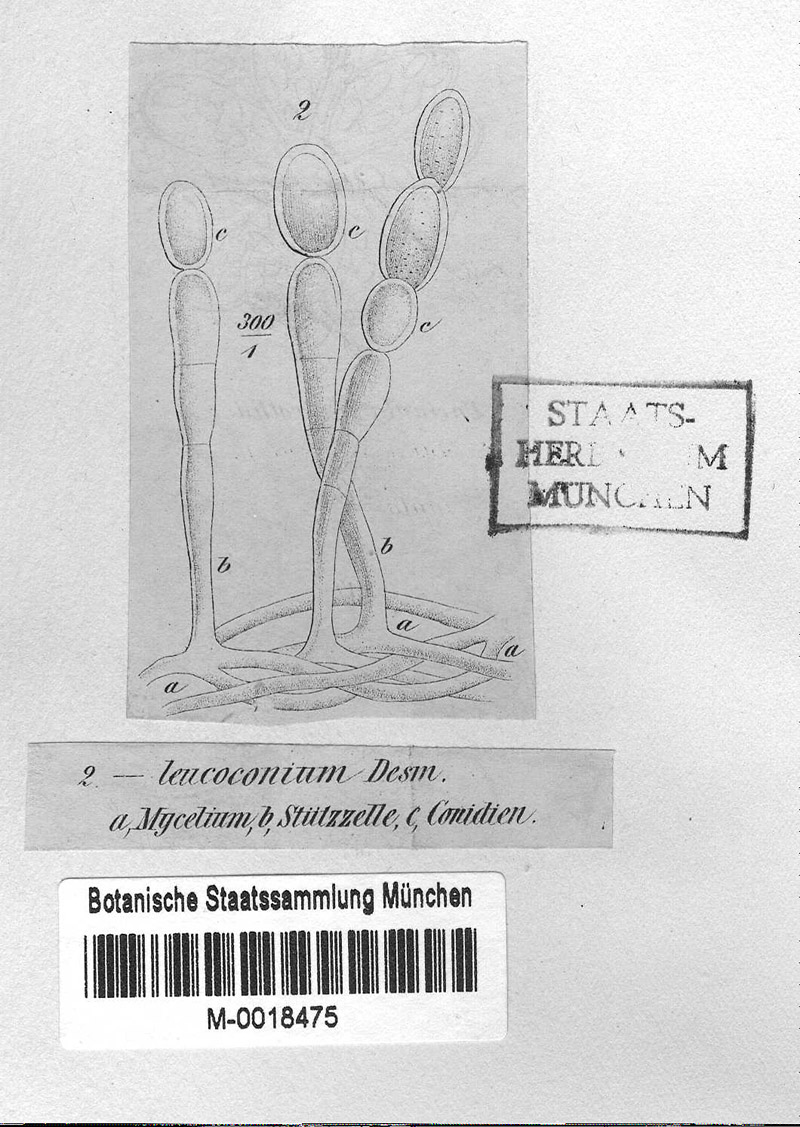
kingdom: Fungi
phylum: Ascomycota
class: Leotiomycetes
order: Helotiales
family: Erysiphaceae
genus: Podosphaera
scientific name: Podosphaera pannosa
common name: Rose mildew
